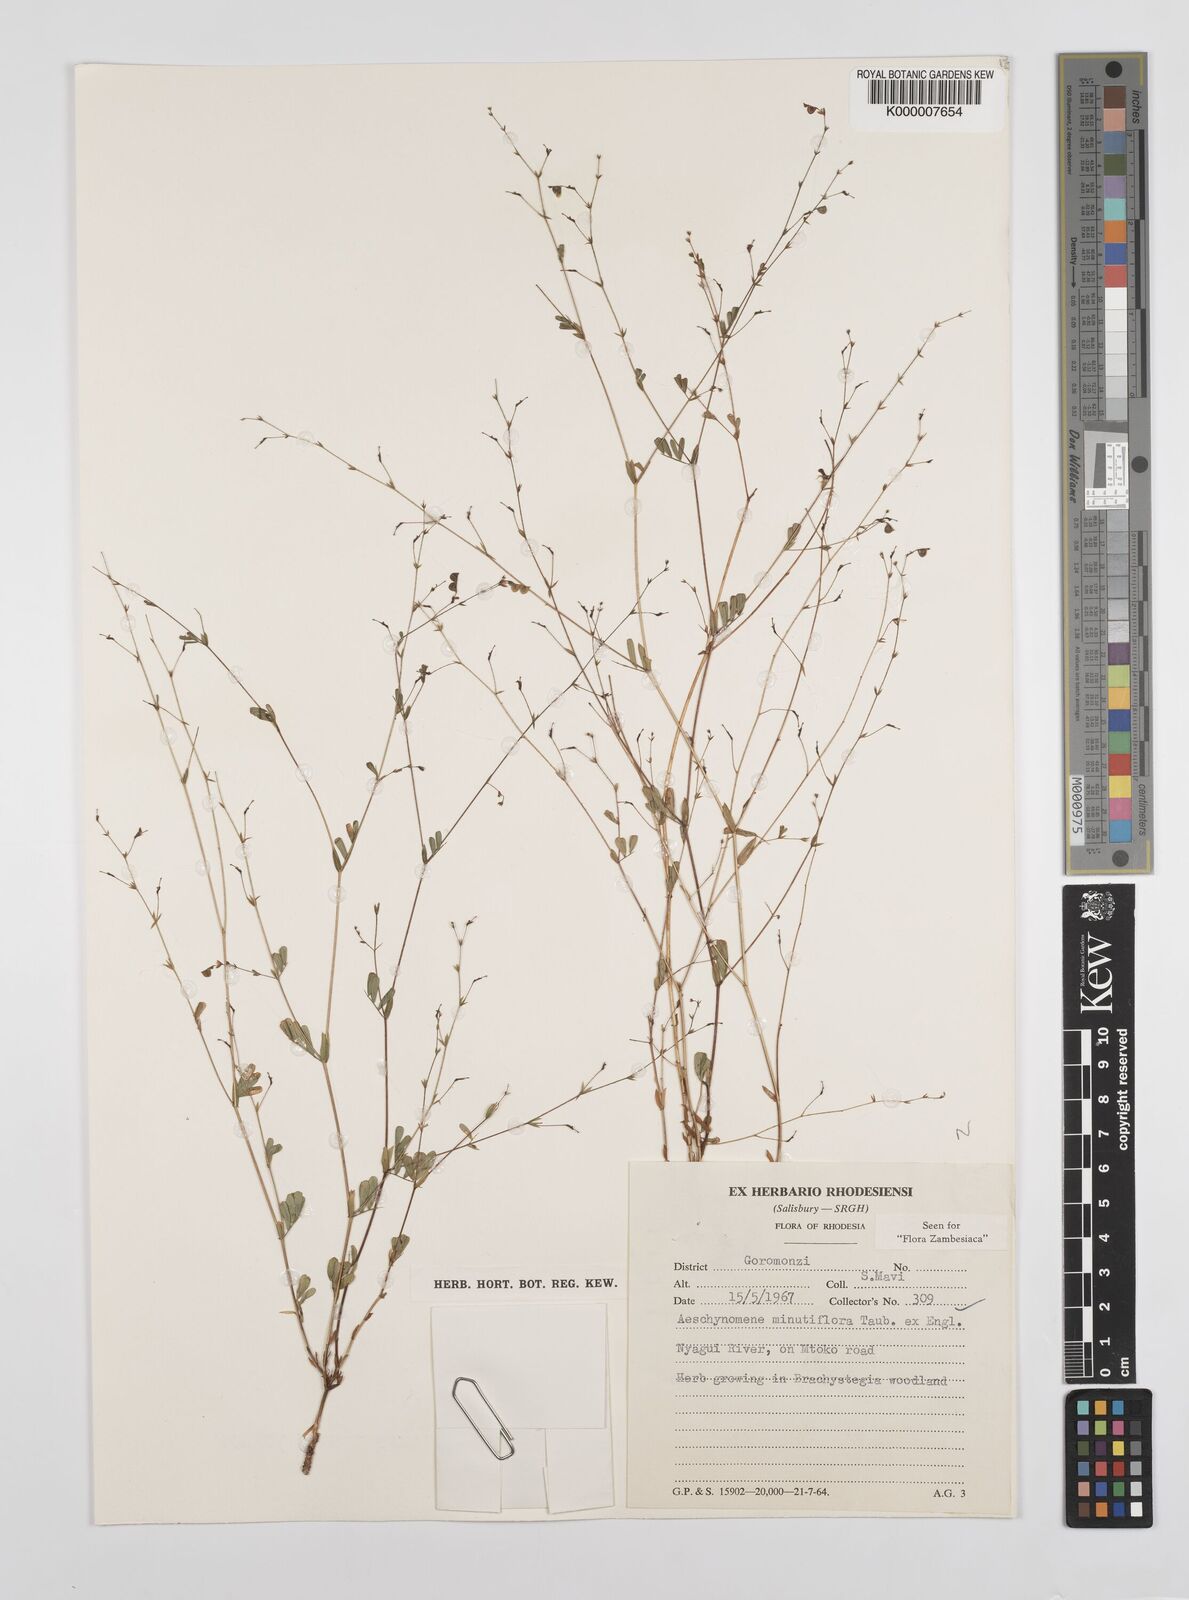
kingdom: Plantae
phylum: Tracheophyta
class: Magnoliopsida
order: Fabales
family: Fabaceae
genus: Aeschynomene
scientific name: Aeschynomene minutiflora
